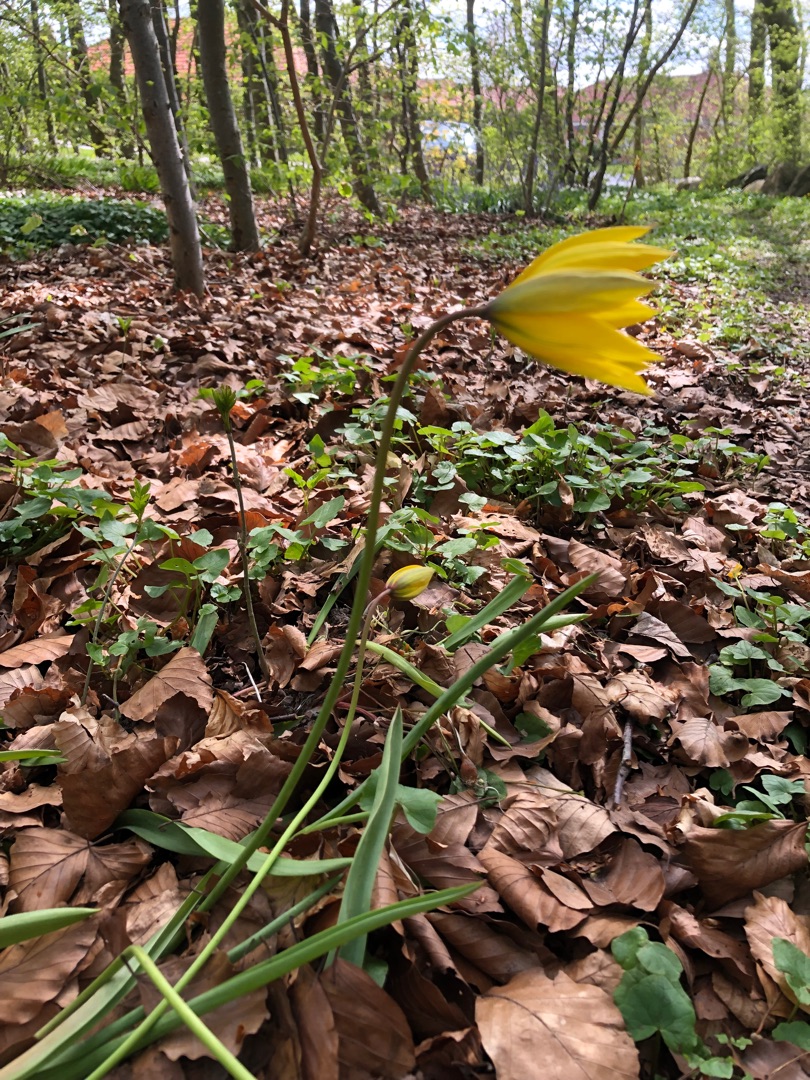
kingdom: Plantae
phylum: Tracheophyta
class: Liliopsida
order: Liliales
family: Liliaceae
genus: Tulipa
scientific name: Tulipa sylvestris
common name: Vild tulipan
